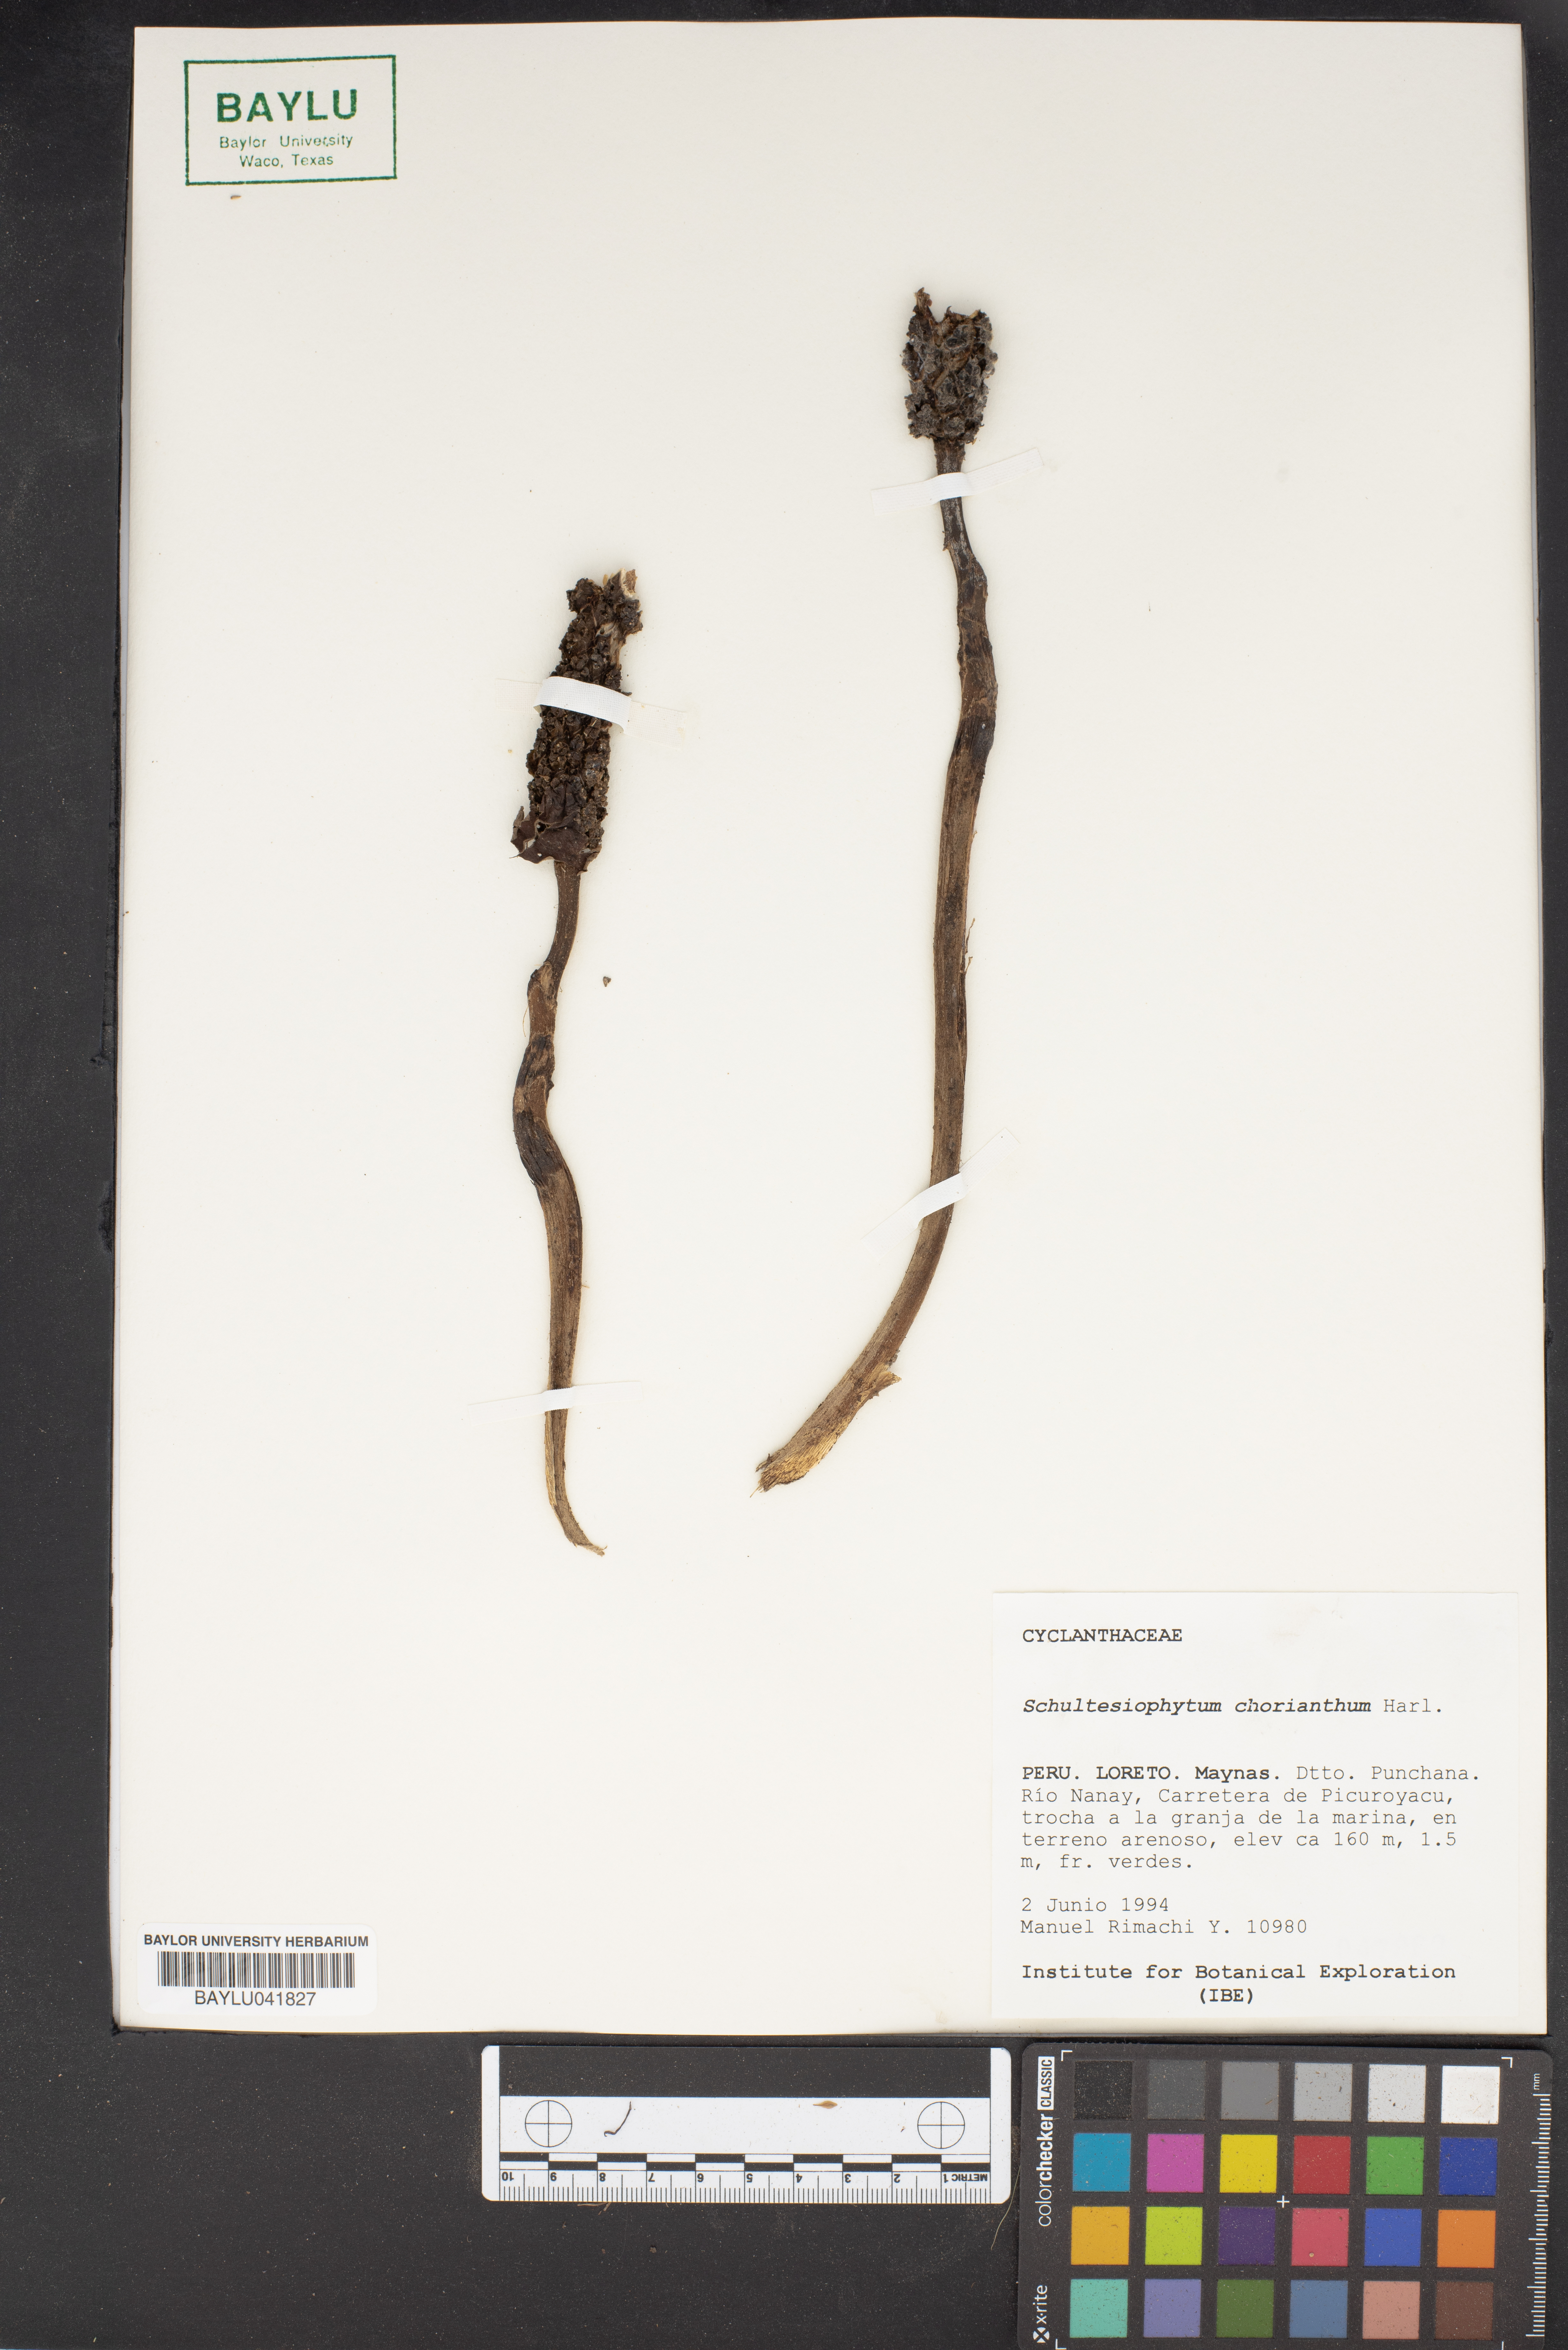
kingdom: Plantae
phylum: Tracheophyta
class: Liliopsida
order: Pandanales
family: Cyclanthaceae
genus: Schultesiophytum
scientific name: Schultesiophytum
